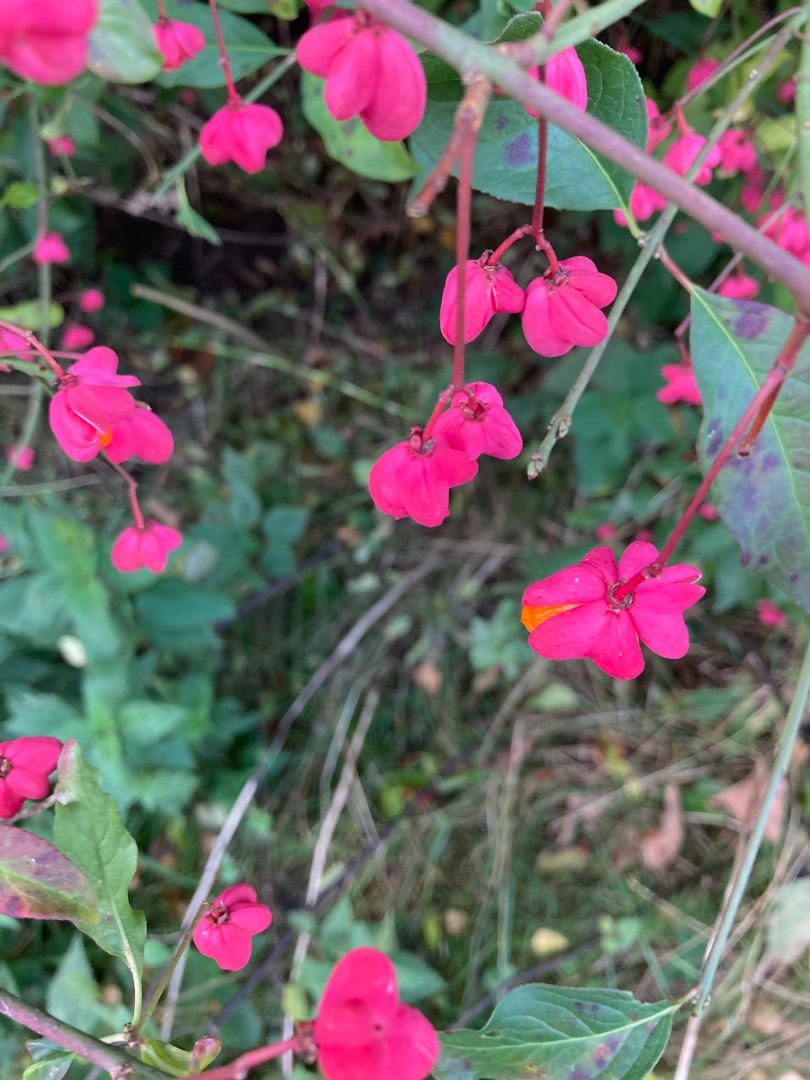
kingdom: Plantae
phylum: Tracheophyta
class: Magnoliopsida
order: Celastrales
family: Celastraceae
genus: Euonymus
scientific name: Euonymus europaeus
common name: Benved
